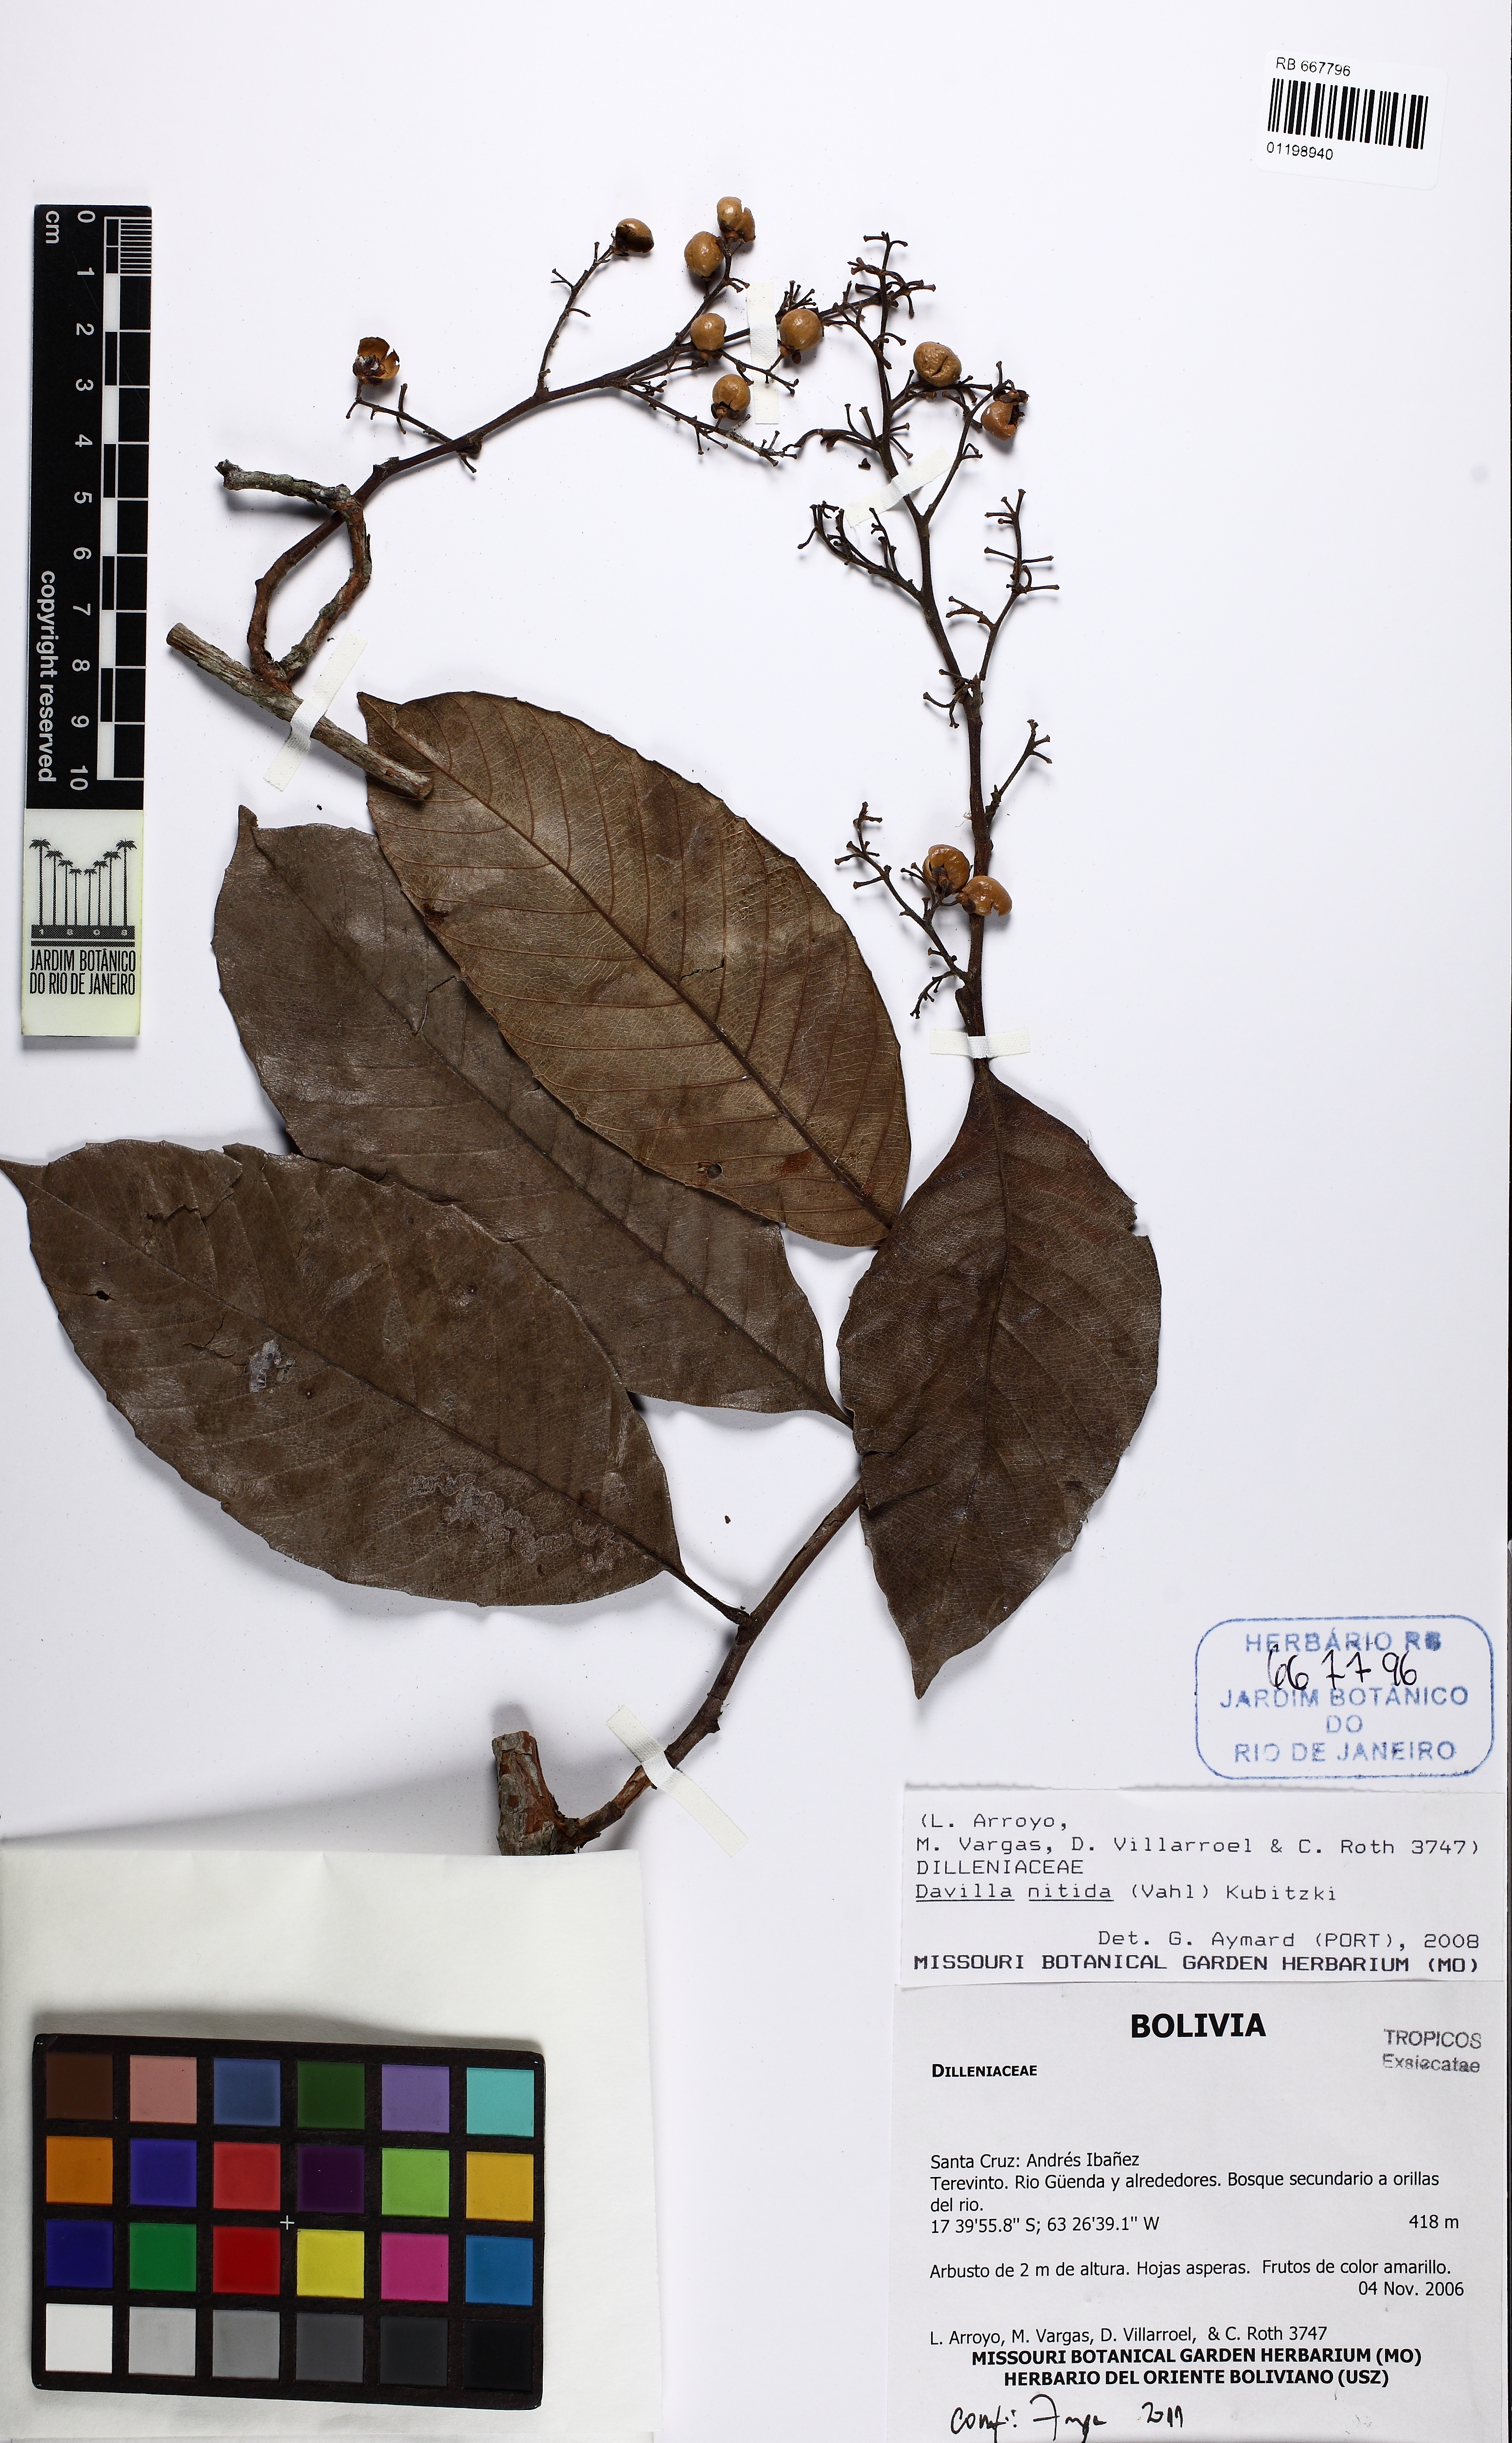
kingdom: Plantae
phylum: Tracheophyta
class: Magnoliopsida
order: Dilleniales
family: Dilleniaceae
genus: Davilla
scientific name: Davilla nitida
